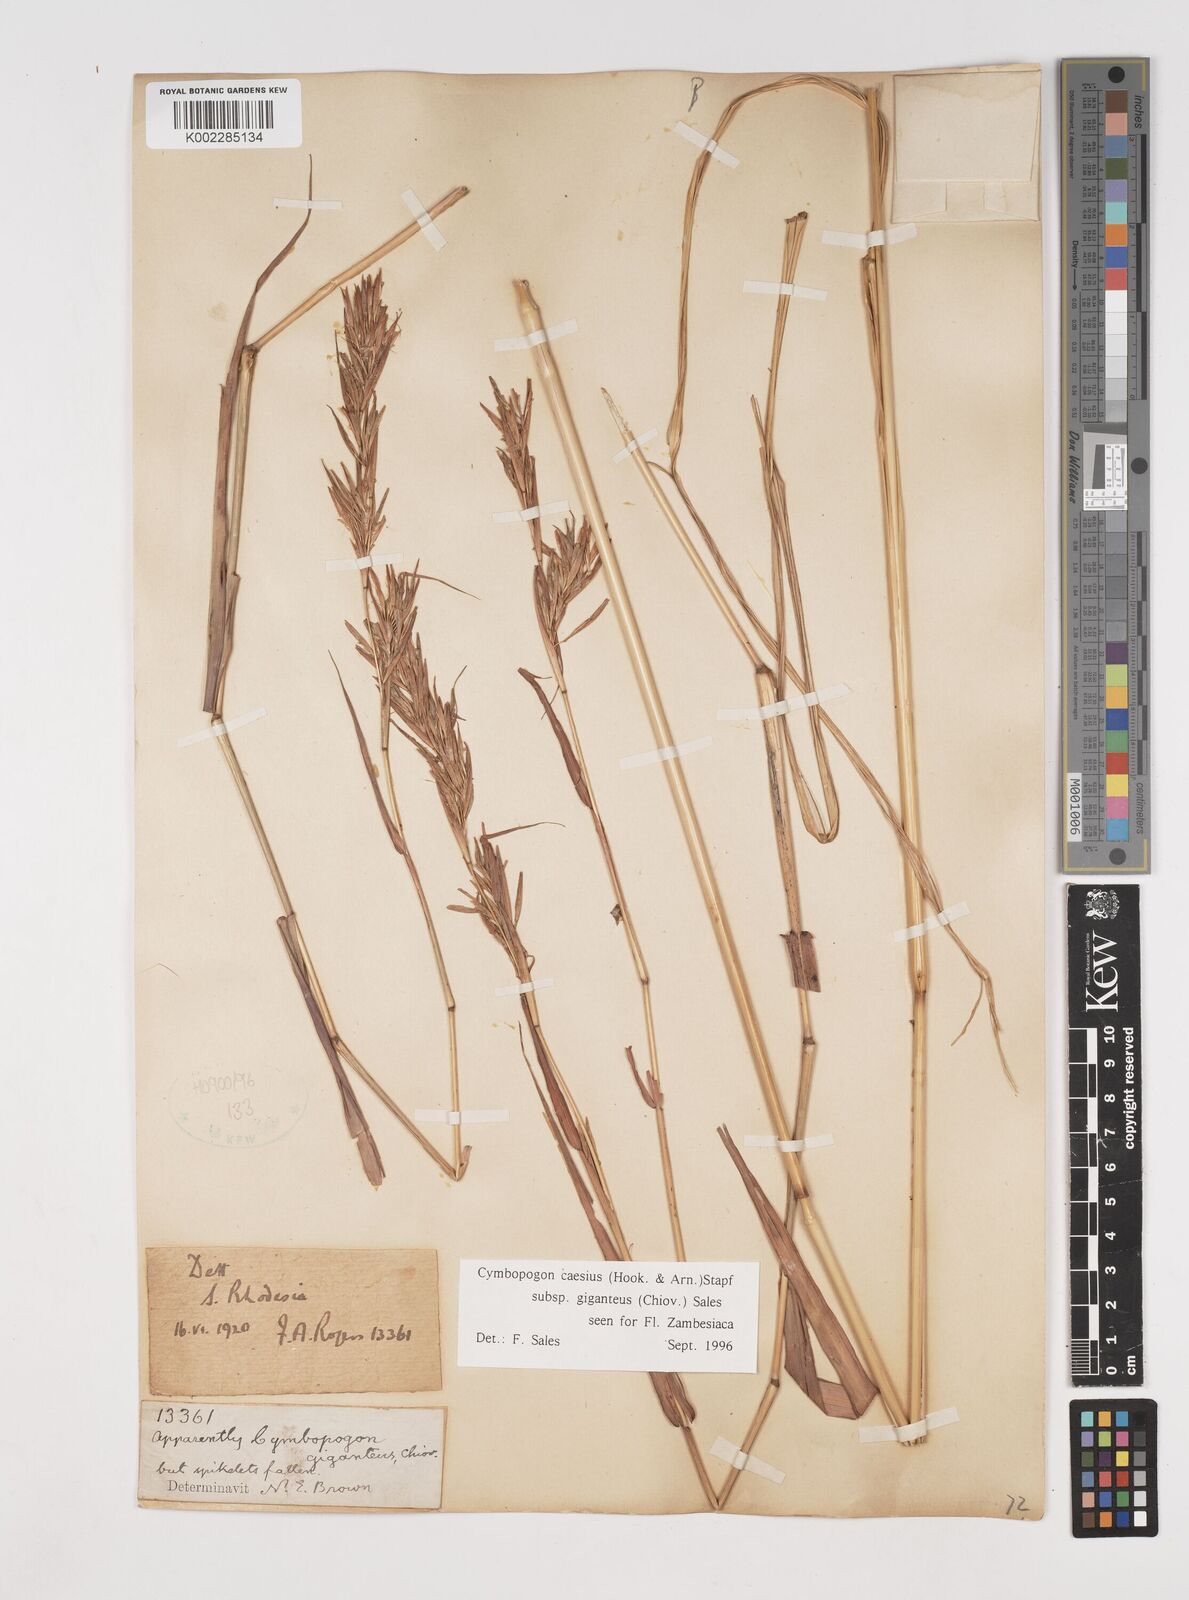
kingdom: Plantae
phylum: Tracheophyta
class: Liliopsida
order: Poales
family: Poaceae
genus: Cymbopogon
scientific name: Cymbopogon giganteus
